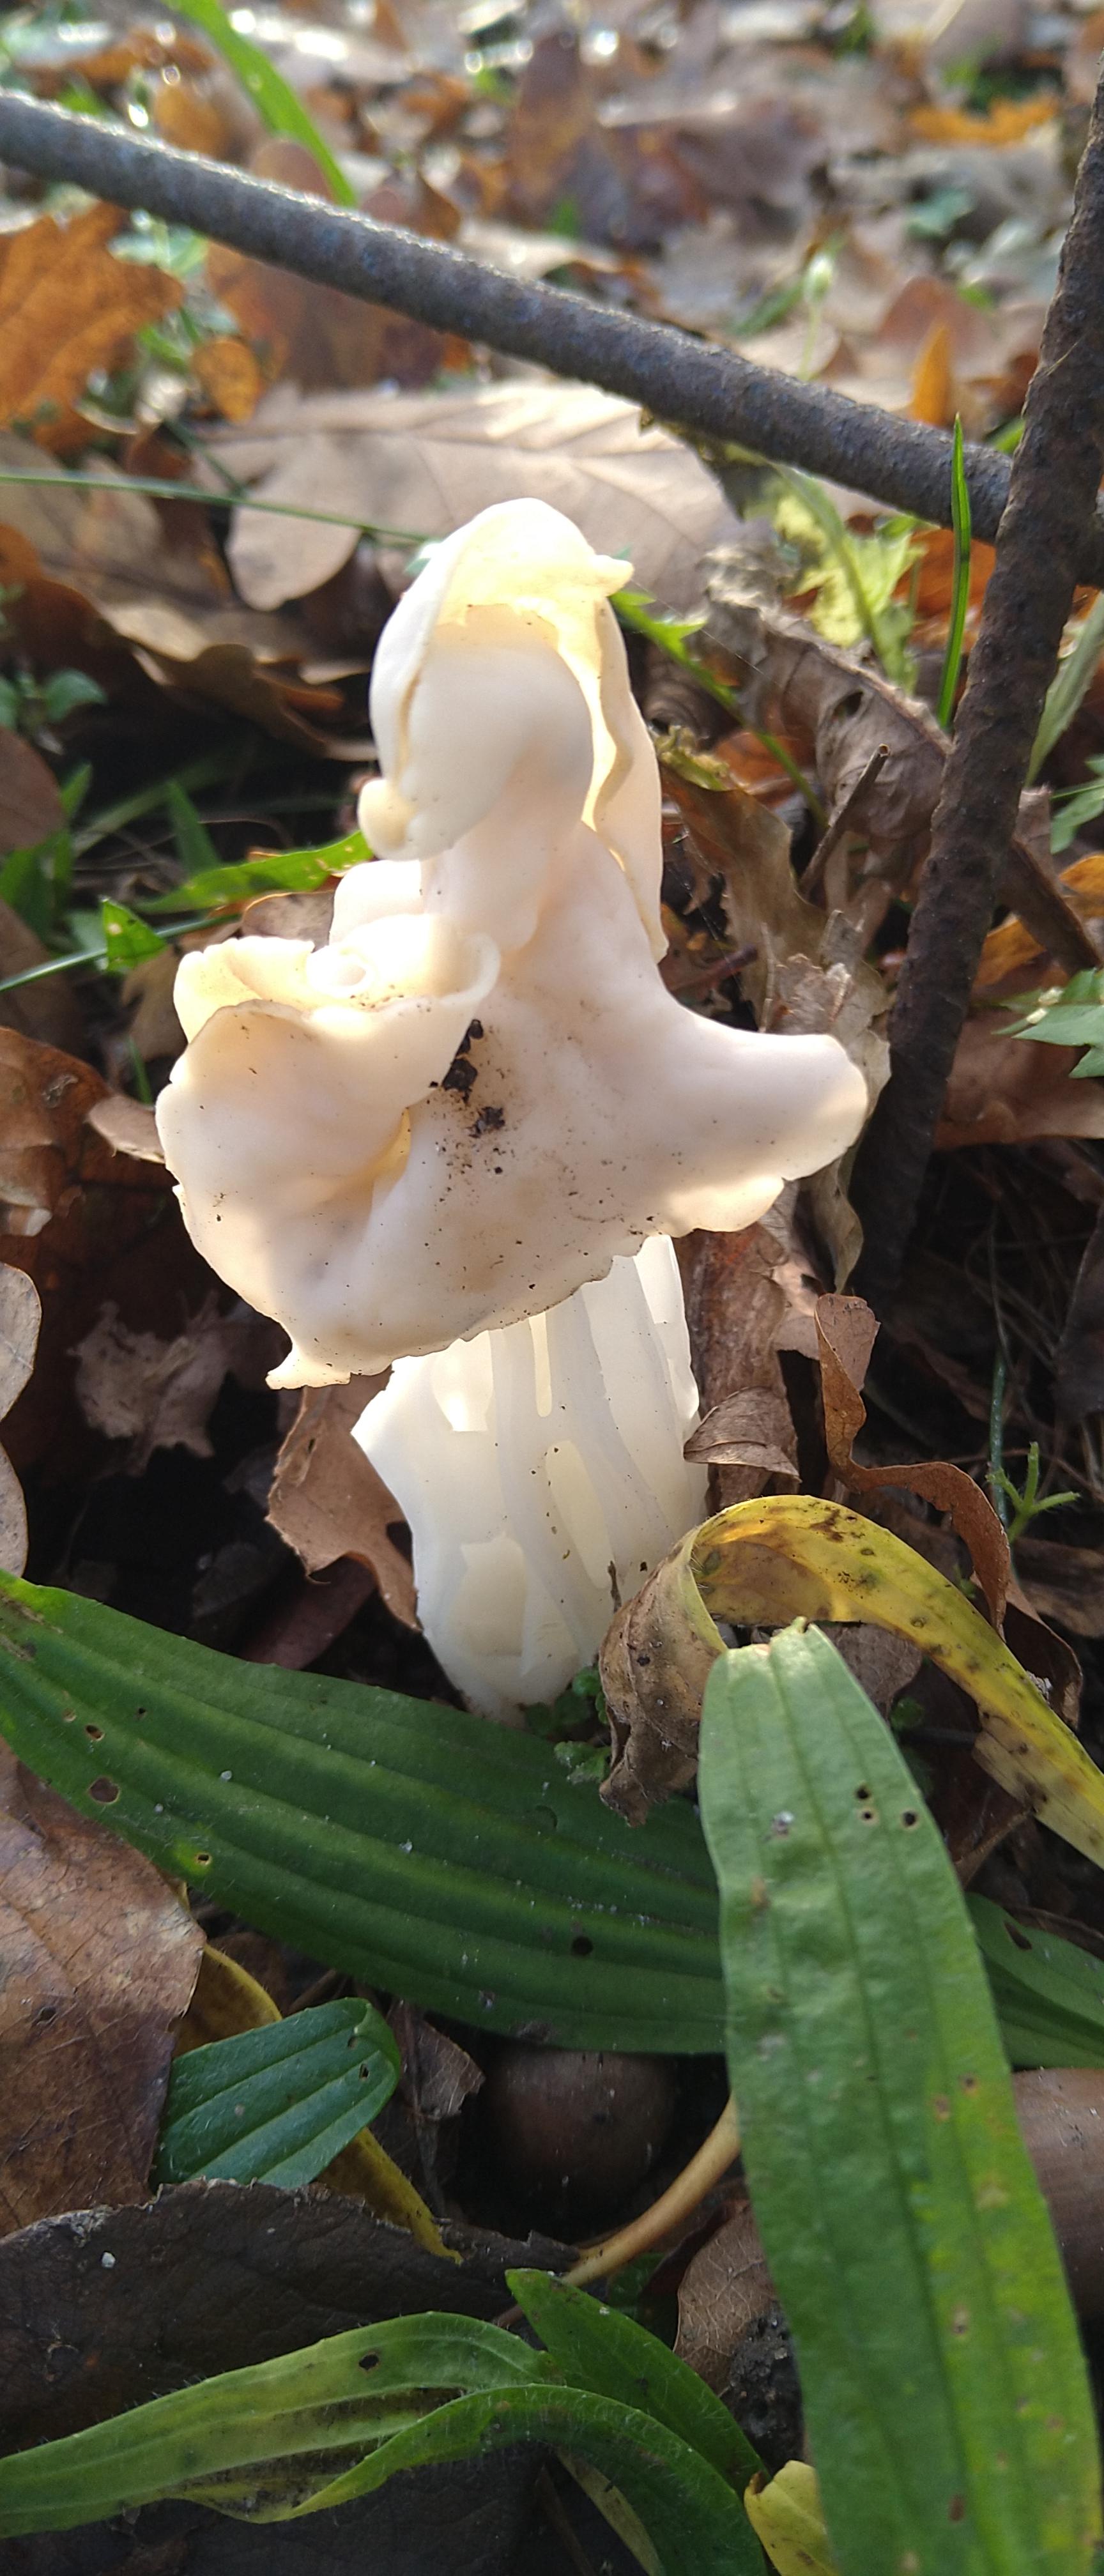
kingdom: Fungi
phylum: Ascomycota
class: Pezizomycetes
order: Pezizales
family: Helvellaceae
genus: Helvella
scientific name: Helvella crispa
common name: kruset foldhat
